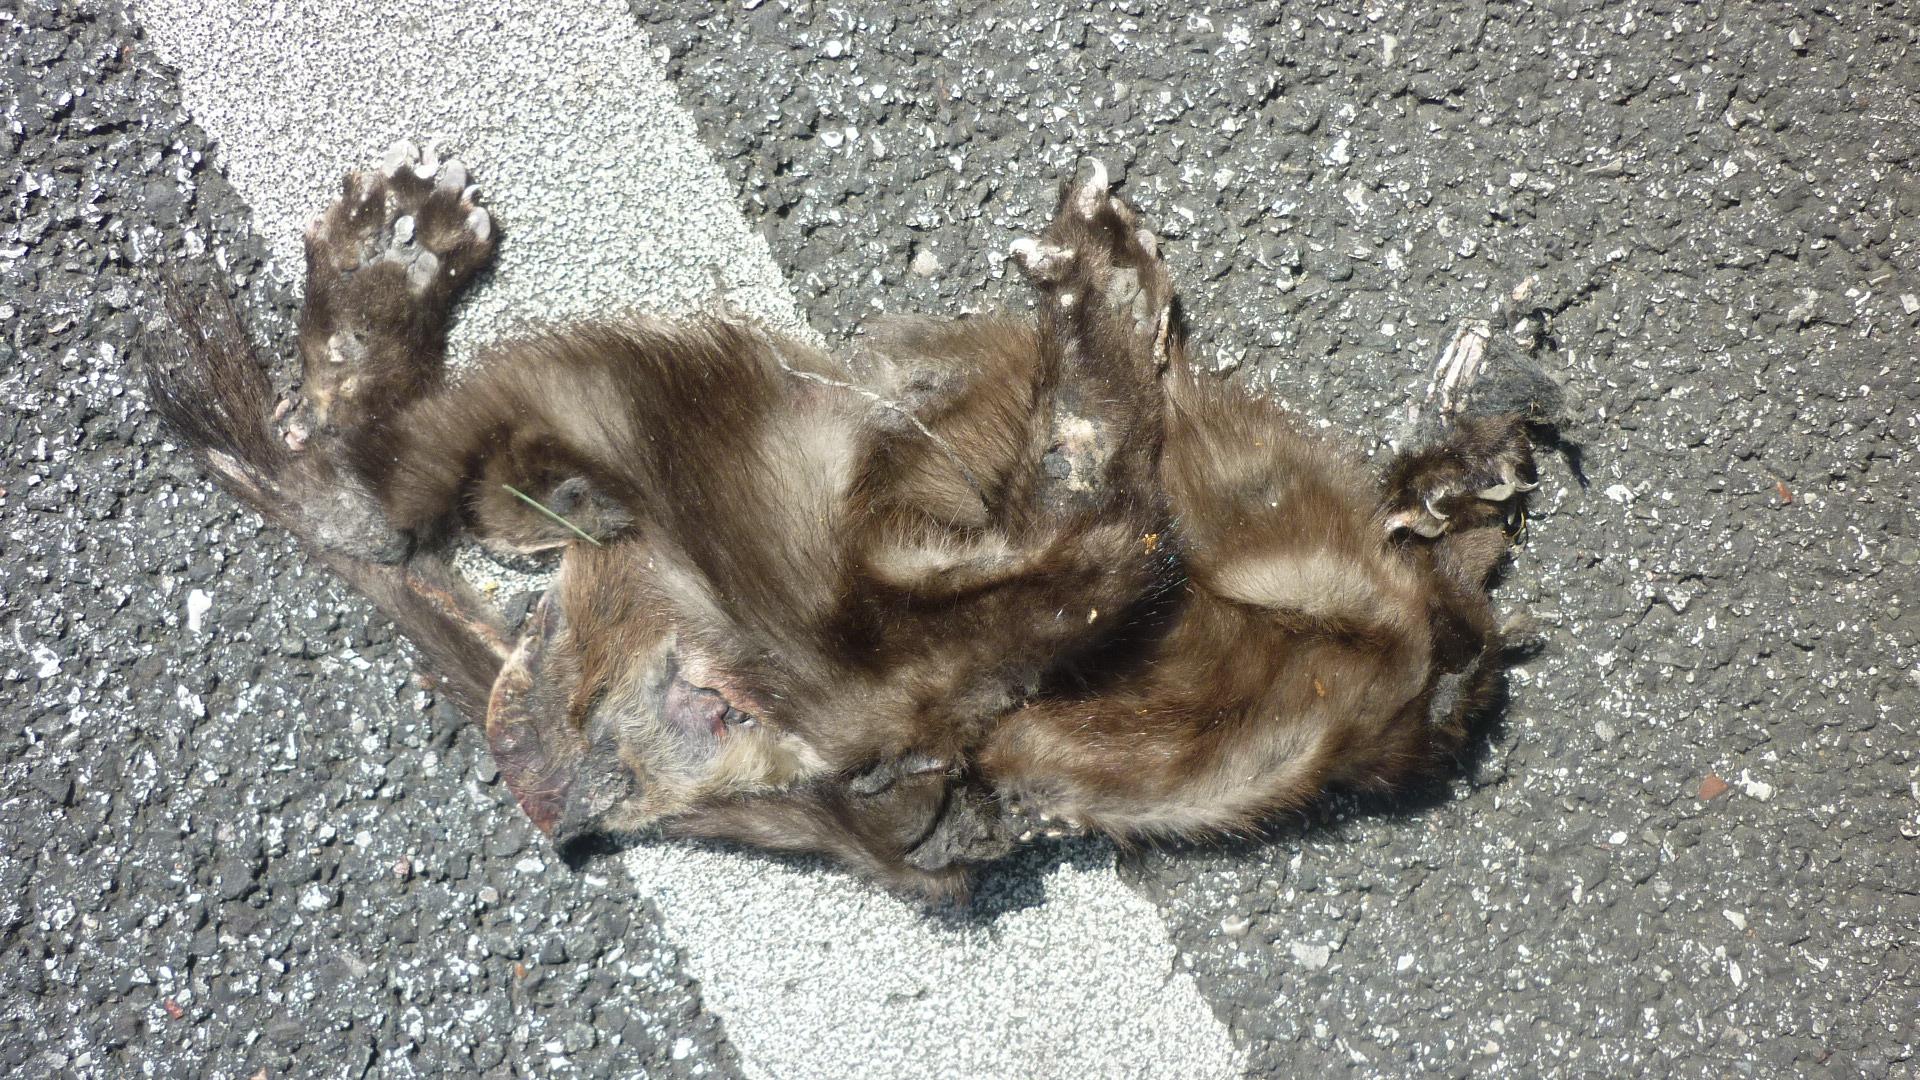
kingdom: Animalia
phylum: Chordata
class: Mammalia
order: Carnivora
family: Mustelidae
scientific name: Mustelidae
